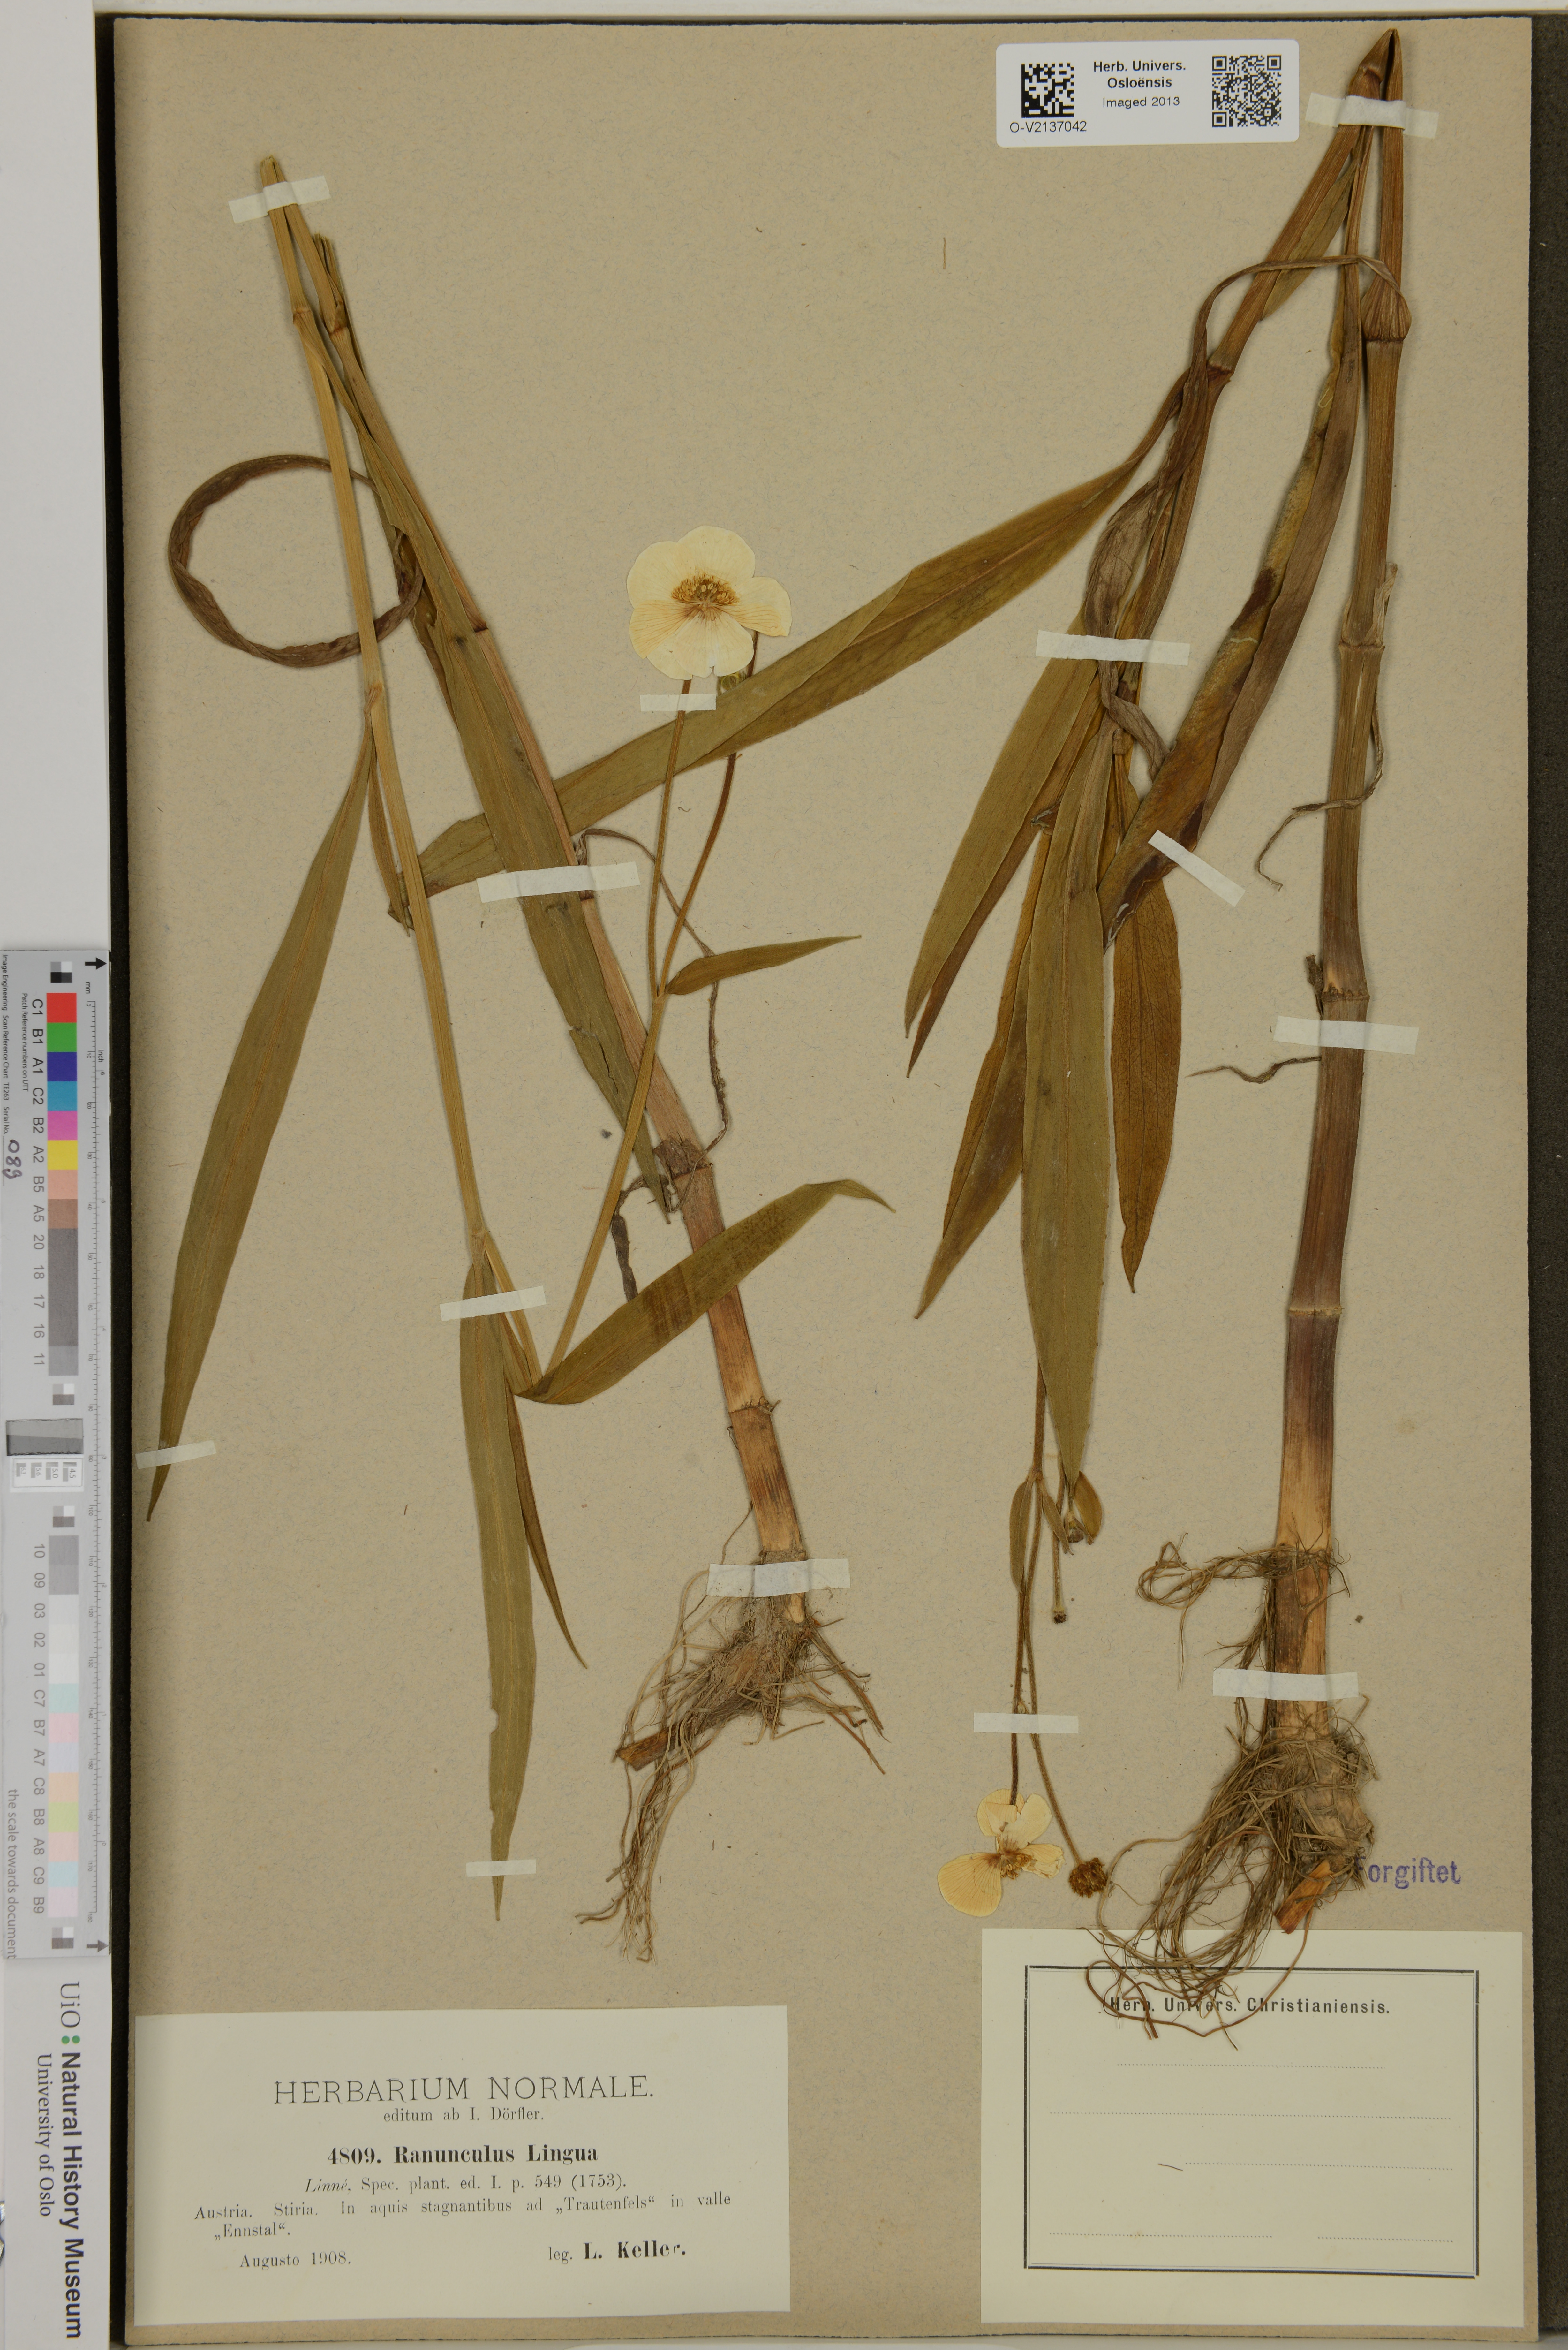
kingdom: Plantae
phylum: Tracheophyta
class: Magnoliopsida
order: Ranunculales
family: Ranunculaceae
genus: Ranunculus
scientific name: Ranunculus lingua
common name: Greater spearwort
